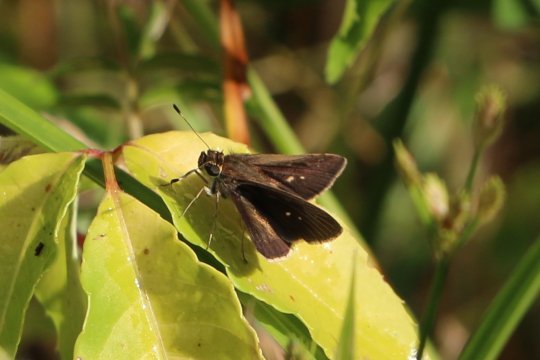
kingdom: Animalia
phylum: Arthropoda
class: Insecta
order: Lepidoptera
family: Hesperiidae
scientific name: Hesperiidae
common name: Skippers
